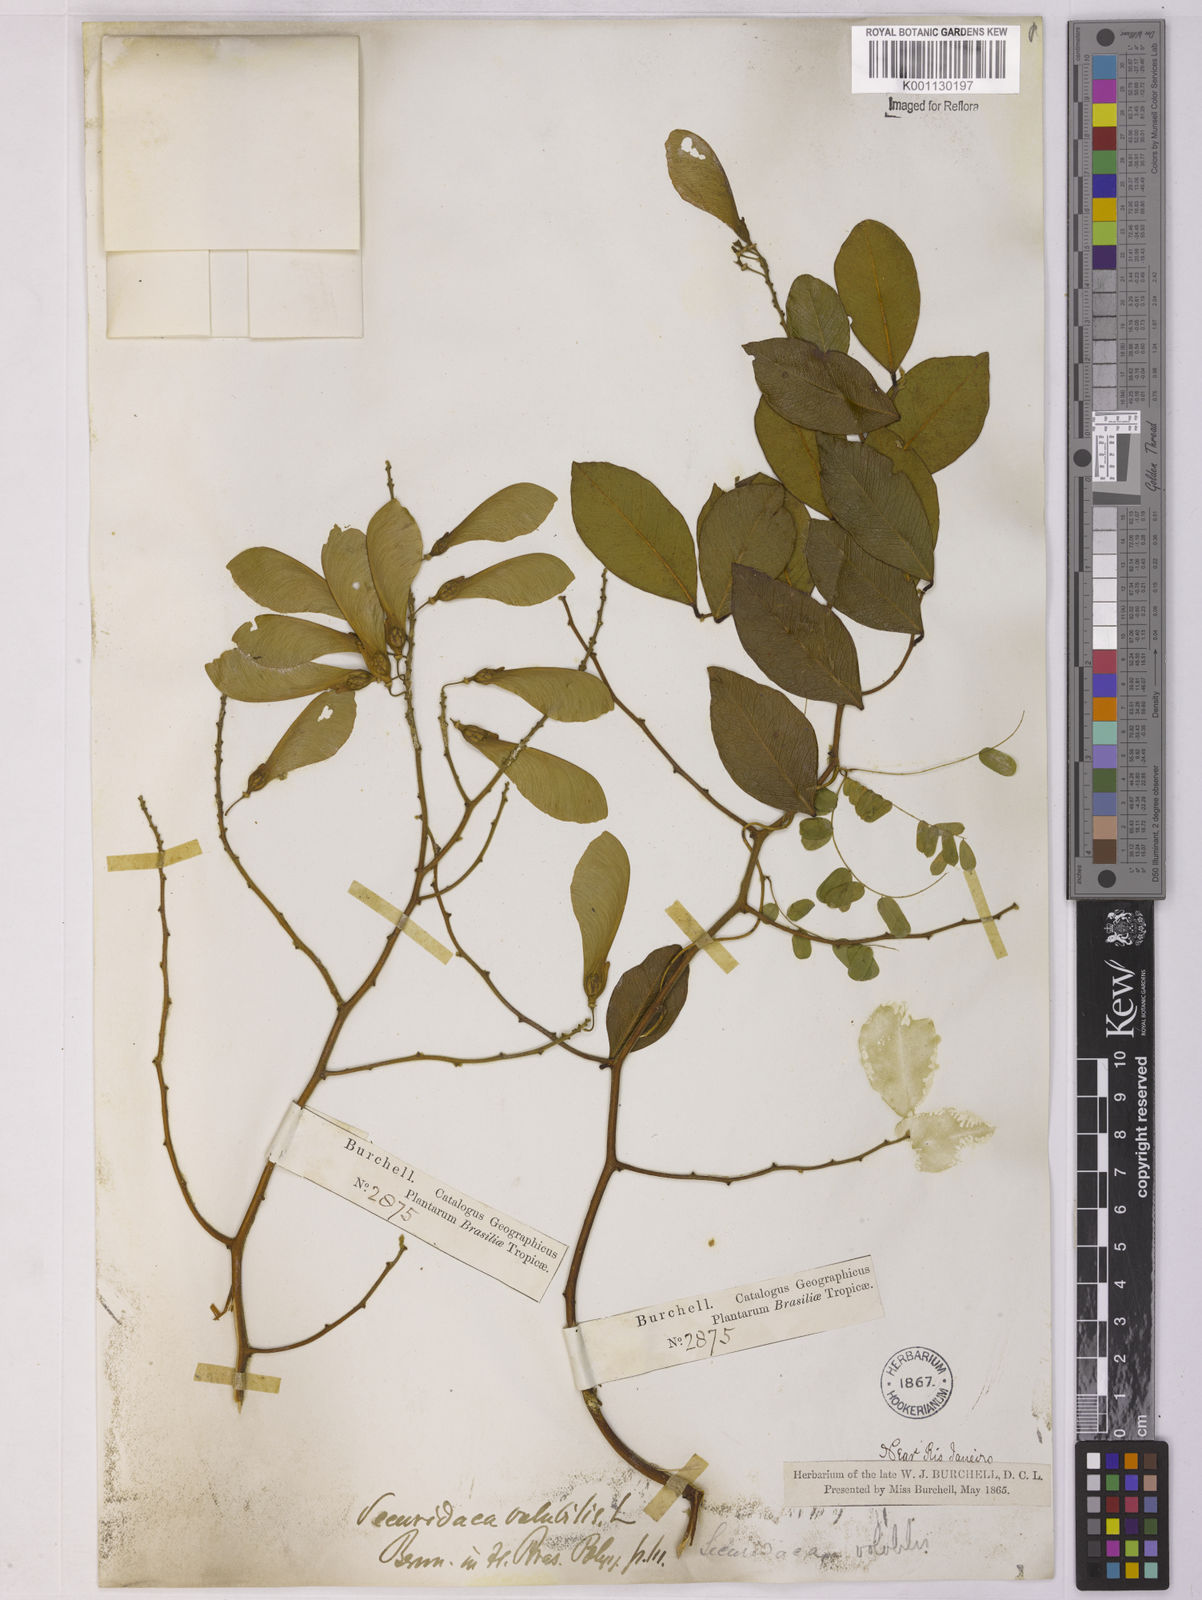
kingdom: Plantae
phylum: Tracheophyta
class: Magnoliopsida
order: Fabales
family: Polygalaceae
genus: Securidaca
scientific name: Securidaca
